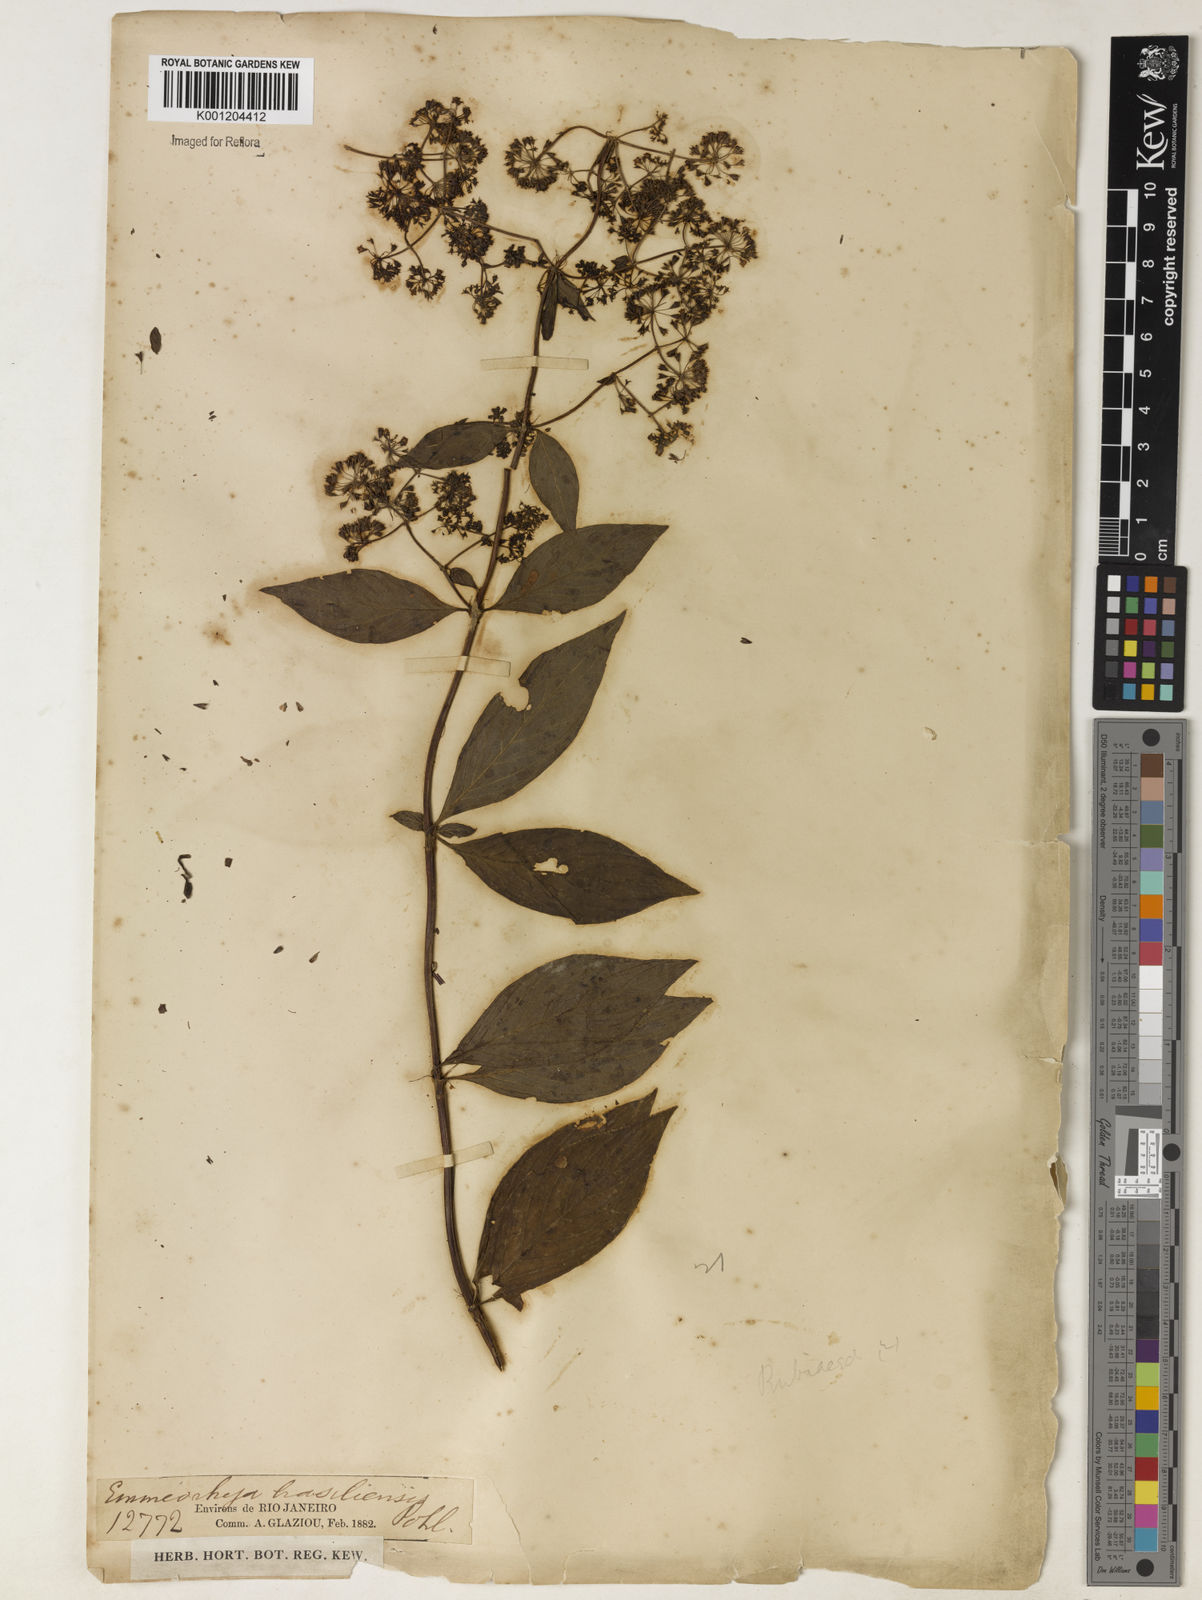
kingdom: Plantae
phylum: Tracheophyta
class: Magnoliopsida
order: Gentianales
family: Rubiaceae
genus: Emmeorhiza
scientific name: Emmeorhiza
